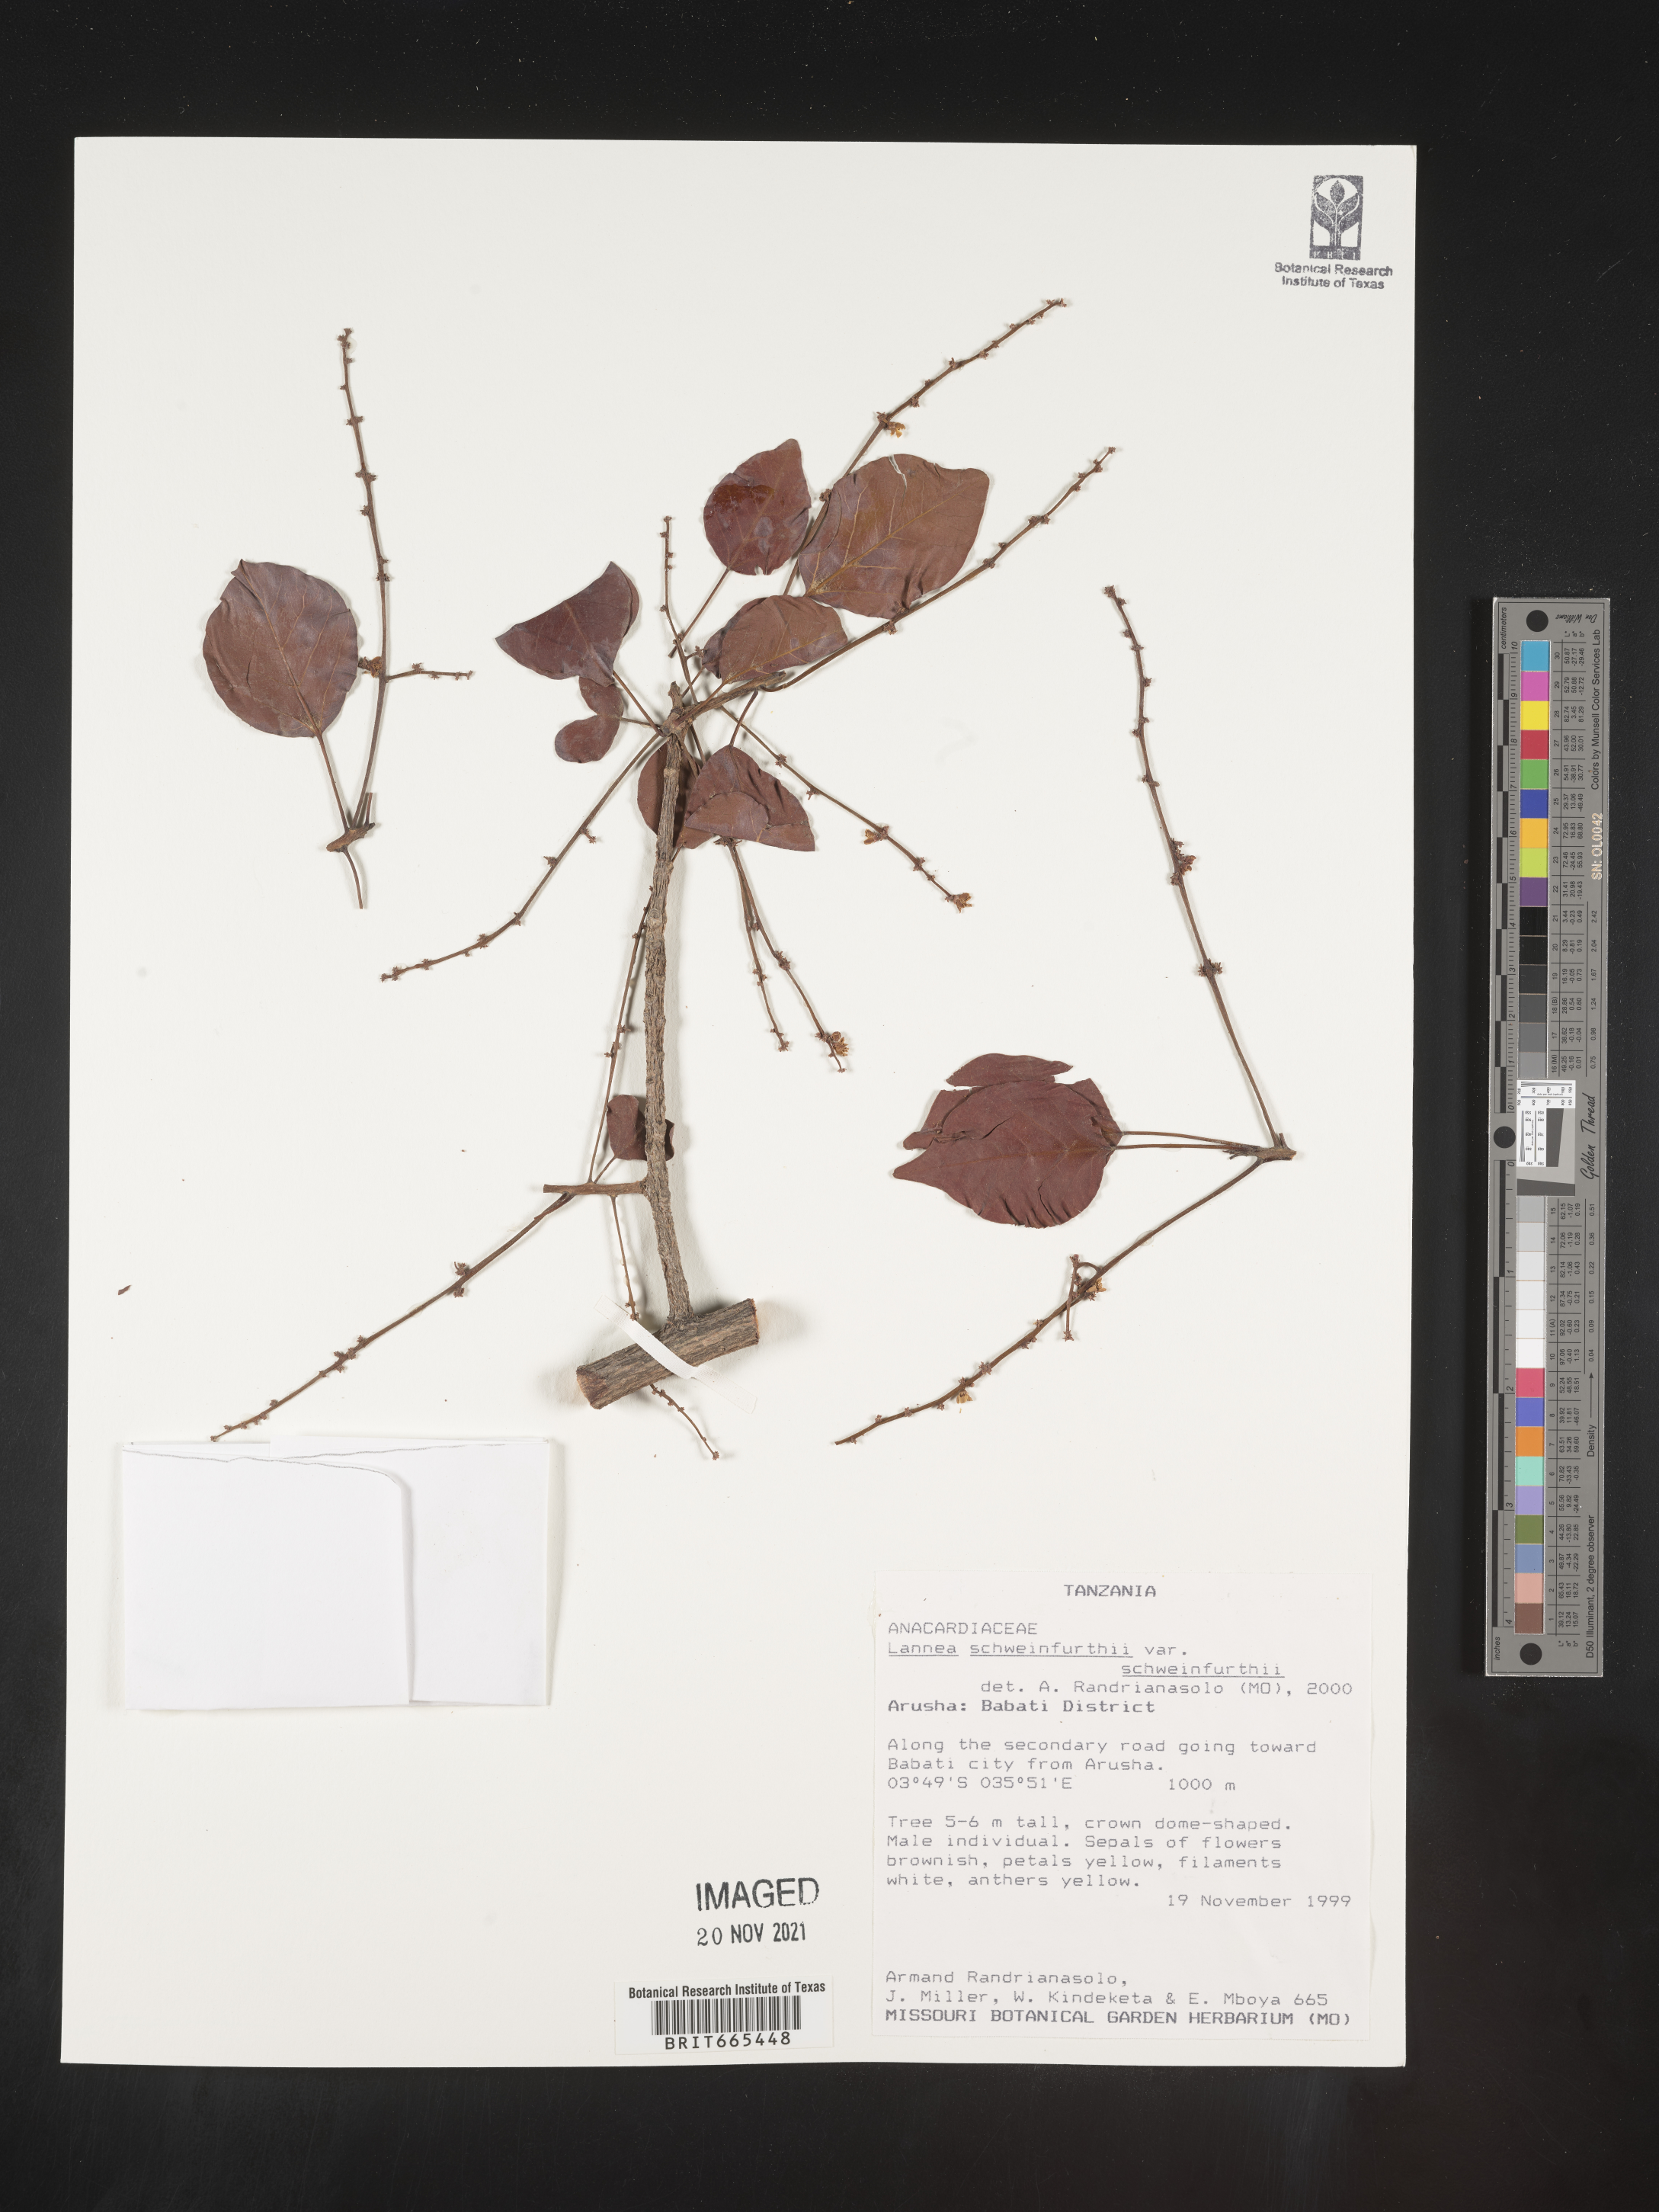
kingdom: Plantae
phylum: Tracheophyta
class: Magnoliopsida
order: Sapindales
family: Anacardiaceae
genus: Lannea
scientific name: Lannea schweinfurthii
